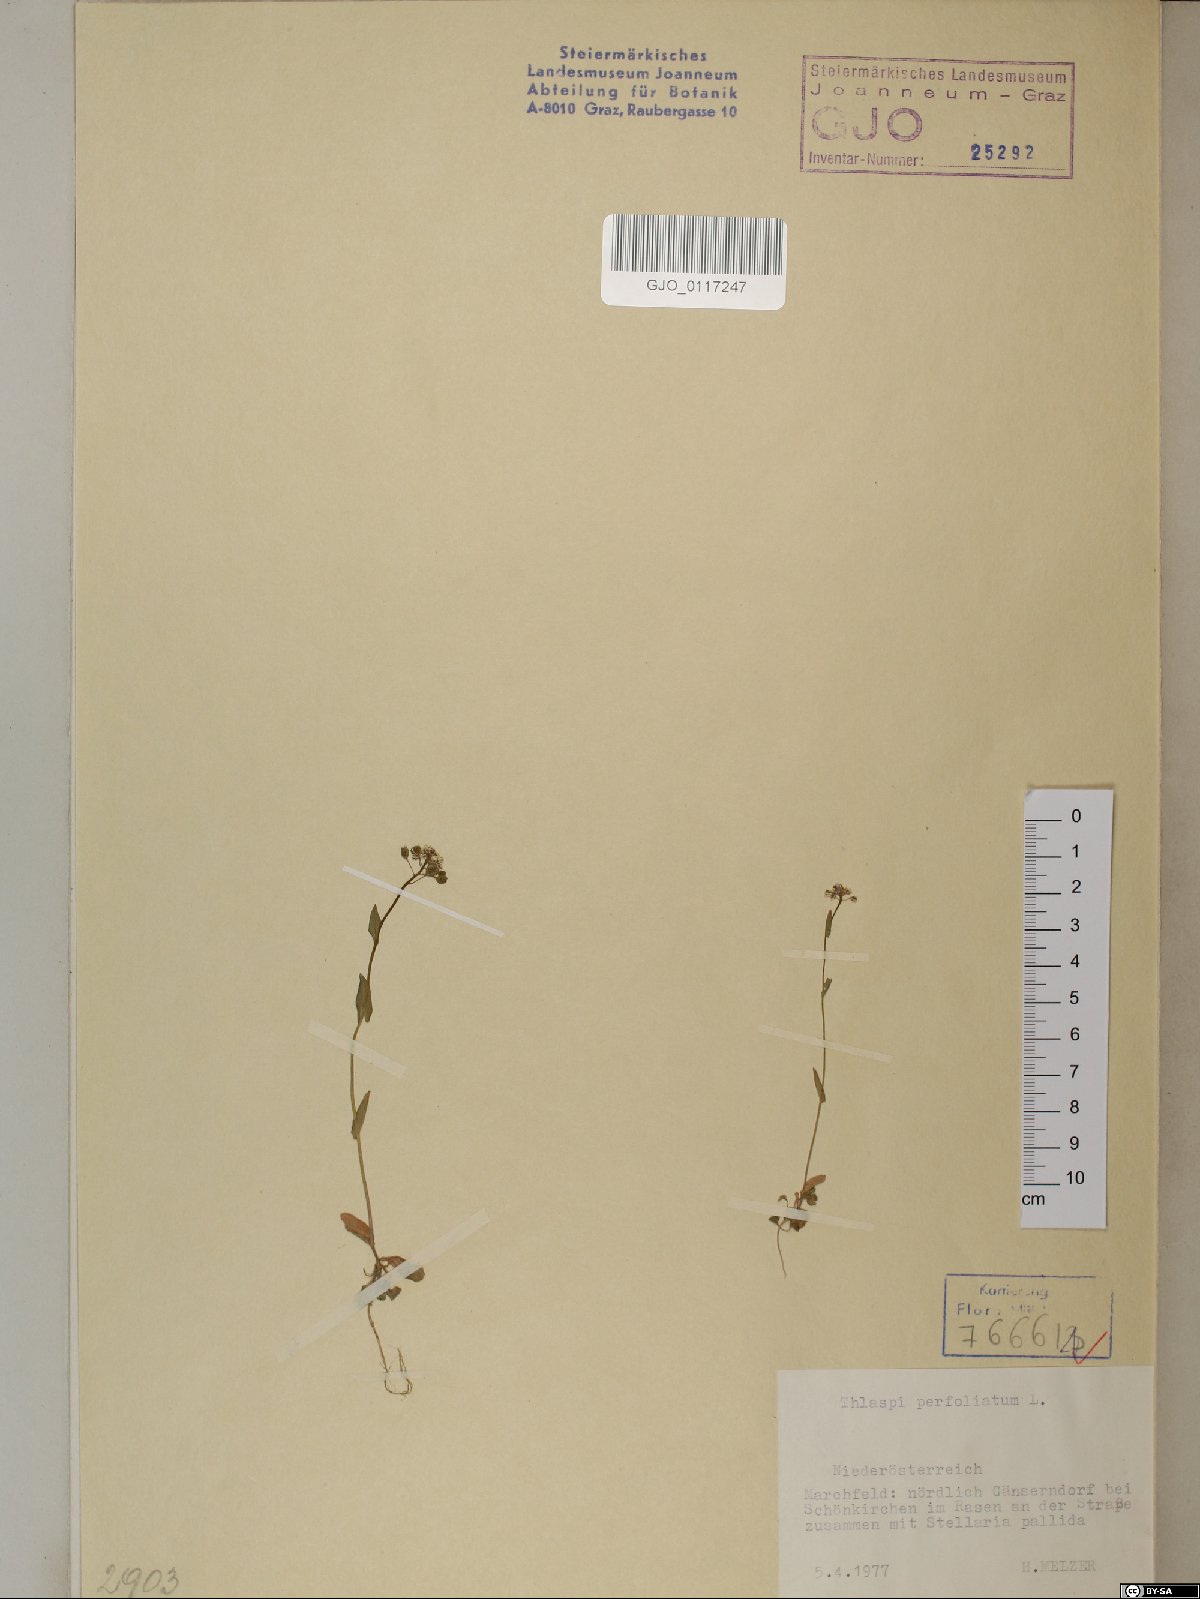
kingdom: Plantae
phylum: Tracheophyta
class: Magnoliopsida
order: Brassicales
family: Brassicaceae
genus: Noccaea
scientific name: Noccaea perfoliata
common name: Perfoliate pennycress
